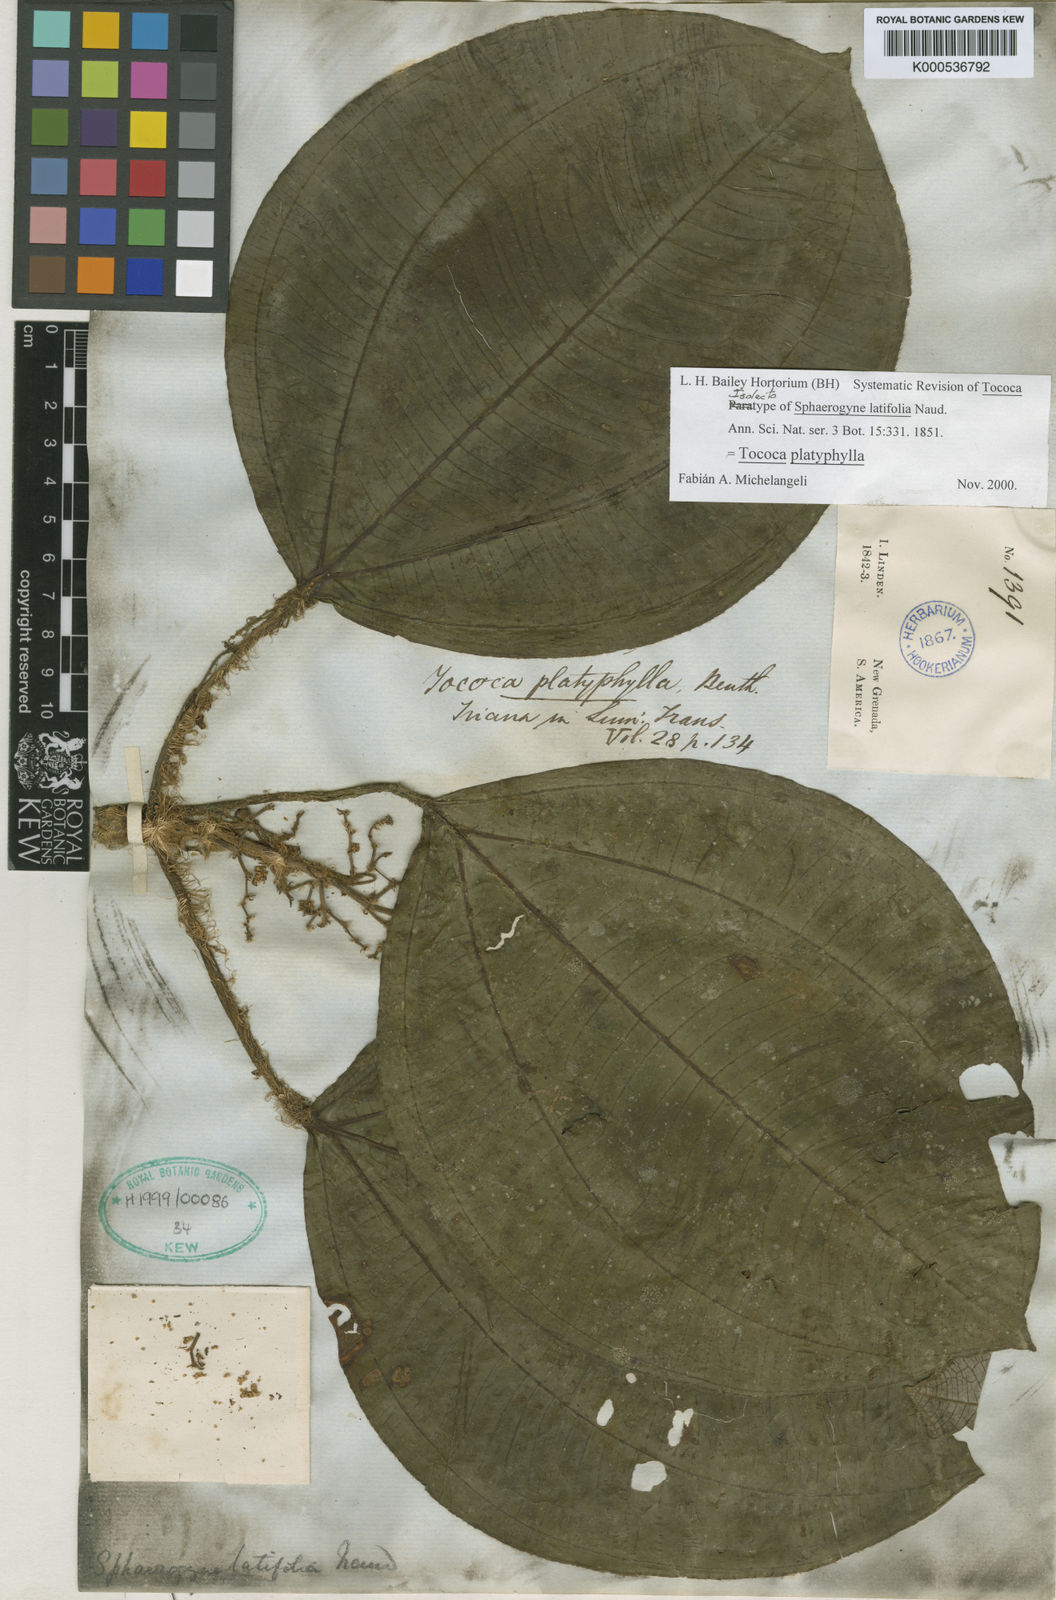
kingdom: Plantae
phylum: Tracheophyta
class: Magnoliopsida
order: Myrtales
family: Melastomataceae
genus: Miconia
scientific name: Miconia platyphylla
